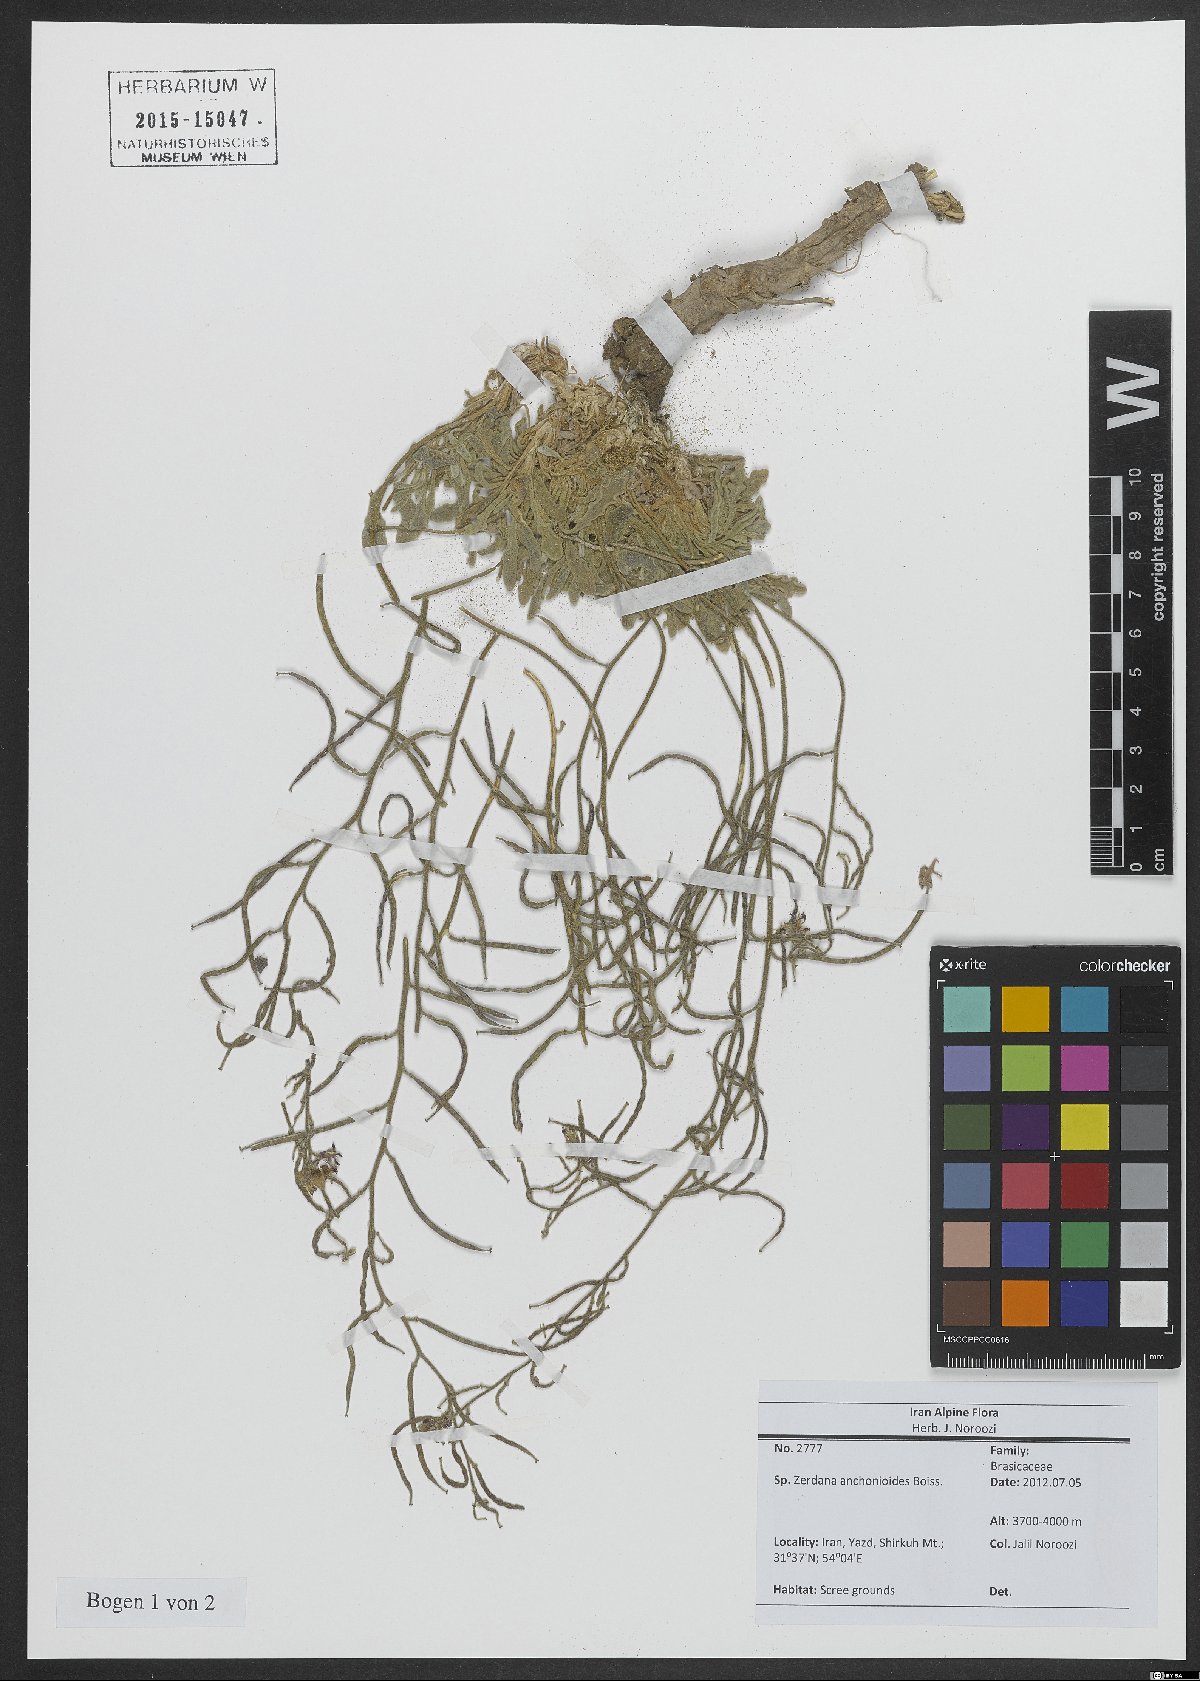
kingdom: Plantae
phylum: Tracheophyta
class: Magnoliopsida
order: Brassicales
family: Brassicaceae
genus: Zerdana
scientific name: Zerdana anchonioides
